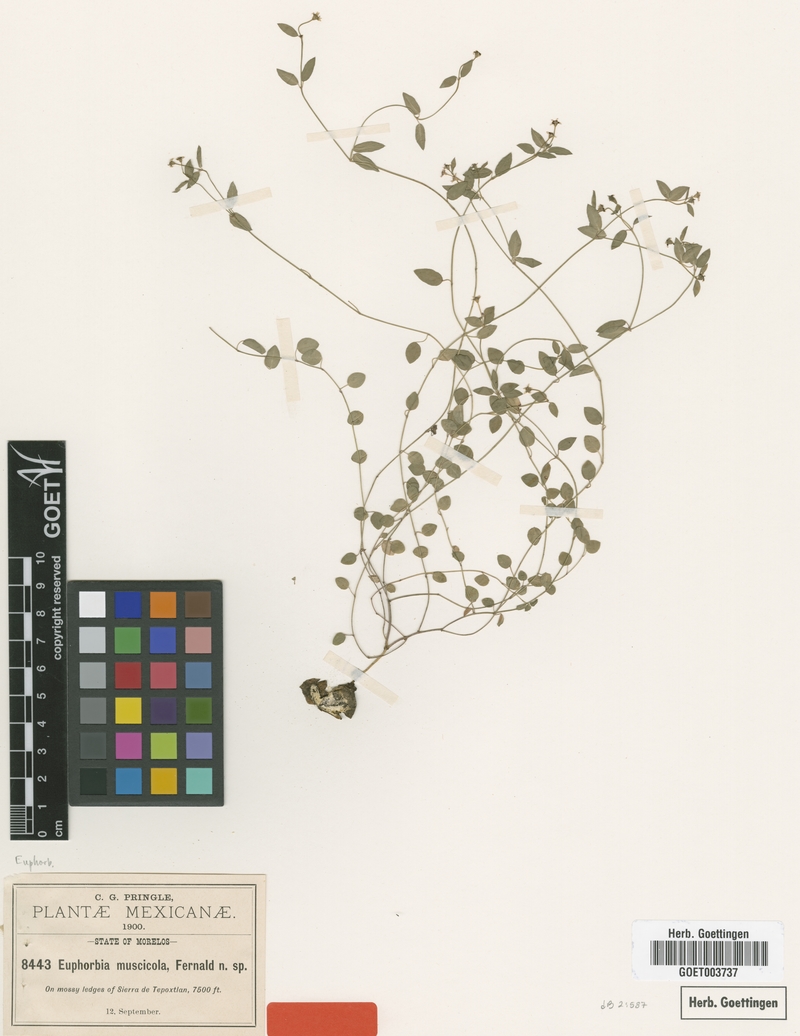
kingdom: Plantae
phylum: Tracheophyta
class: Magnoliopsida
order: Malpighiales
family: Euphorbiaceae
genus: Euphorbia
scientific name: Euphorbia muscicola
